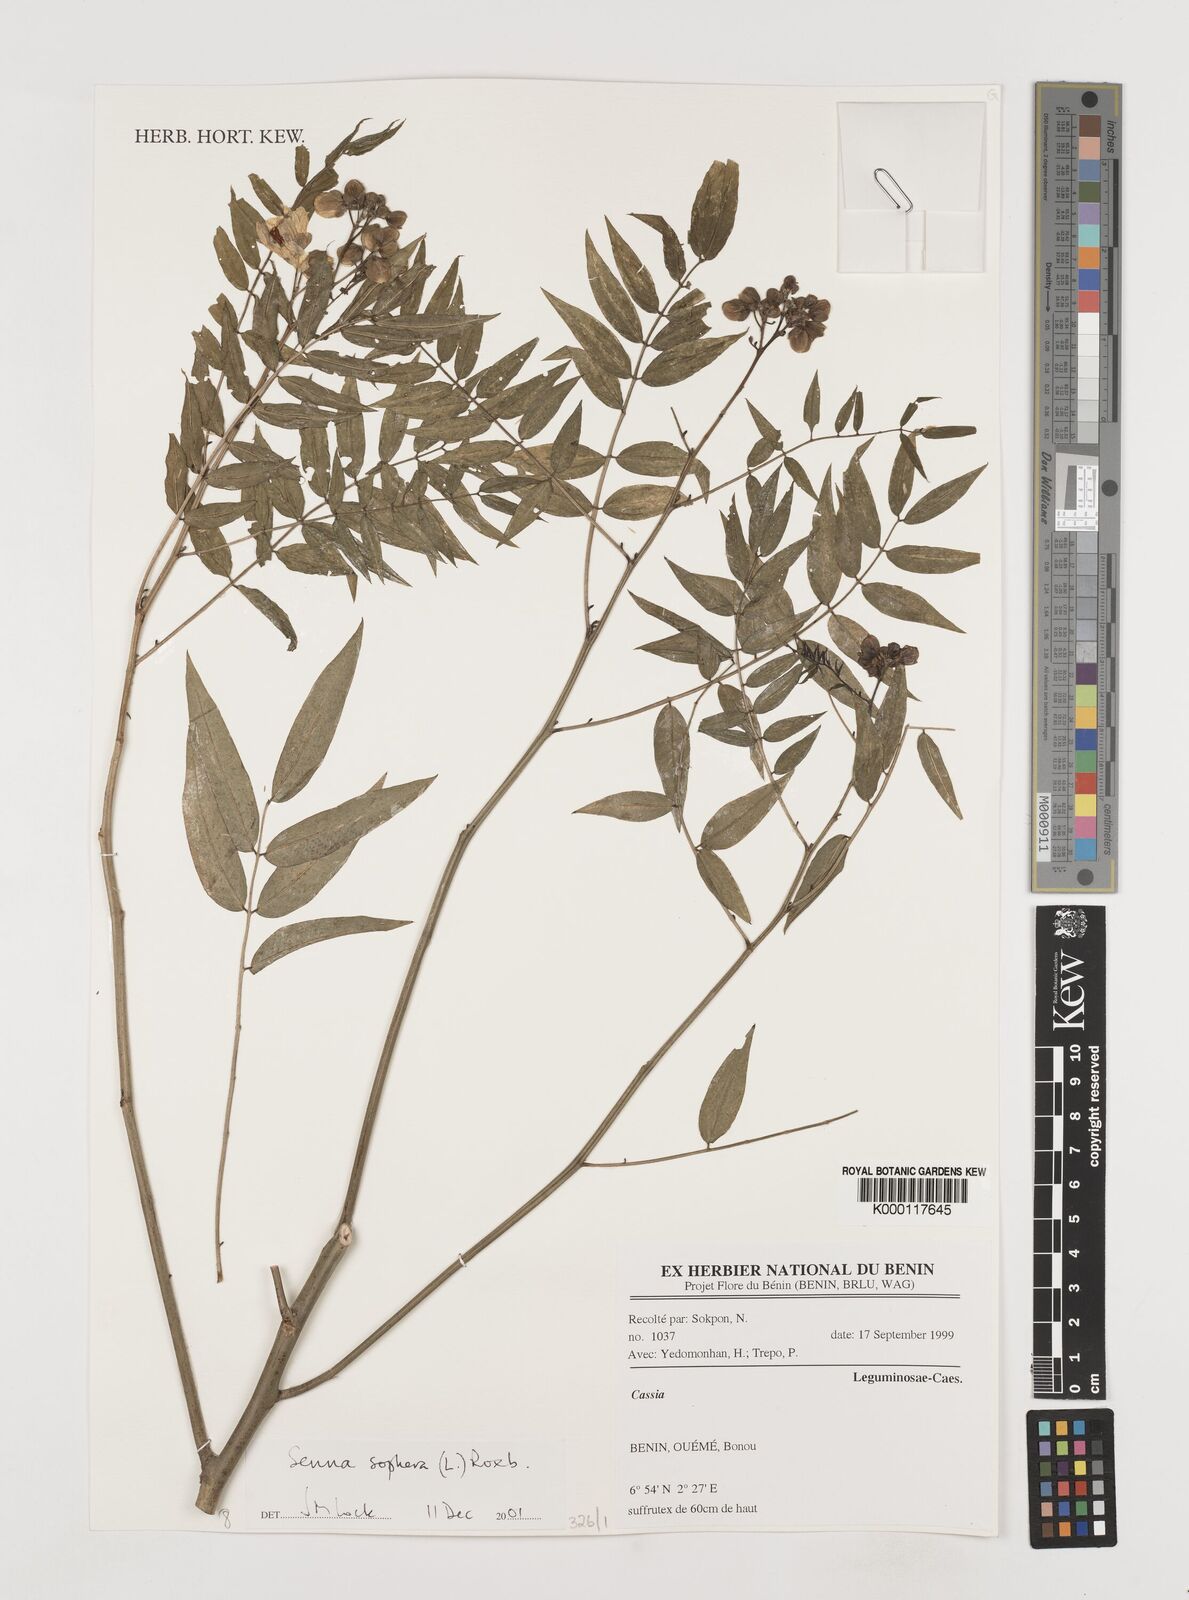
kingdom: Plantae
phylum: Tracheophyta
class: Magnoliopsida
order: Fabales
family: Fabaceae
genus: Senna
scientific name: Senna sophera
